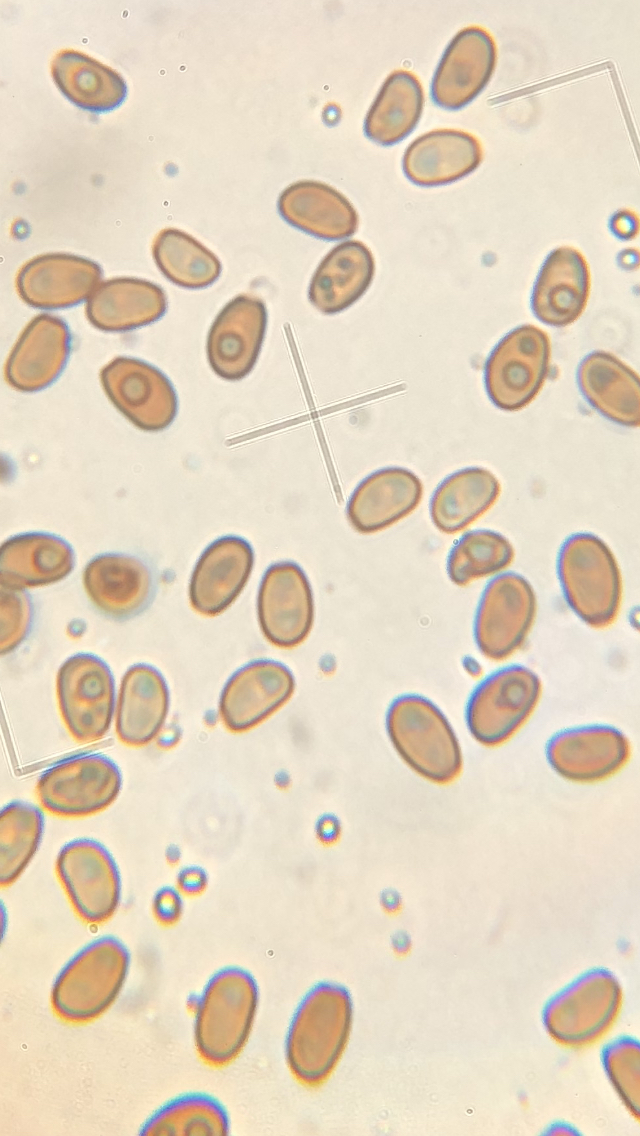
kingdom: Fungi
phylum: Basidiomycota
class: Agaricomycetes
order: Agaricales
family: Psathyrellaceae
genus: Coprinellus
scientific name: Coprinellus domesticus
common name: hus-blækhat
